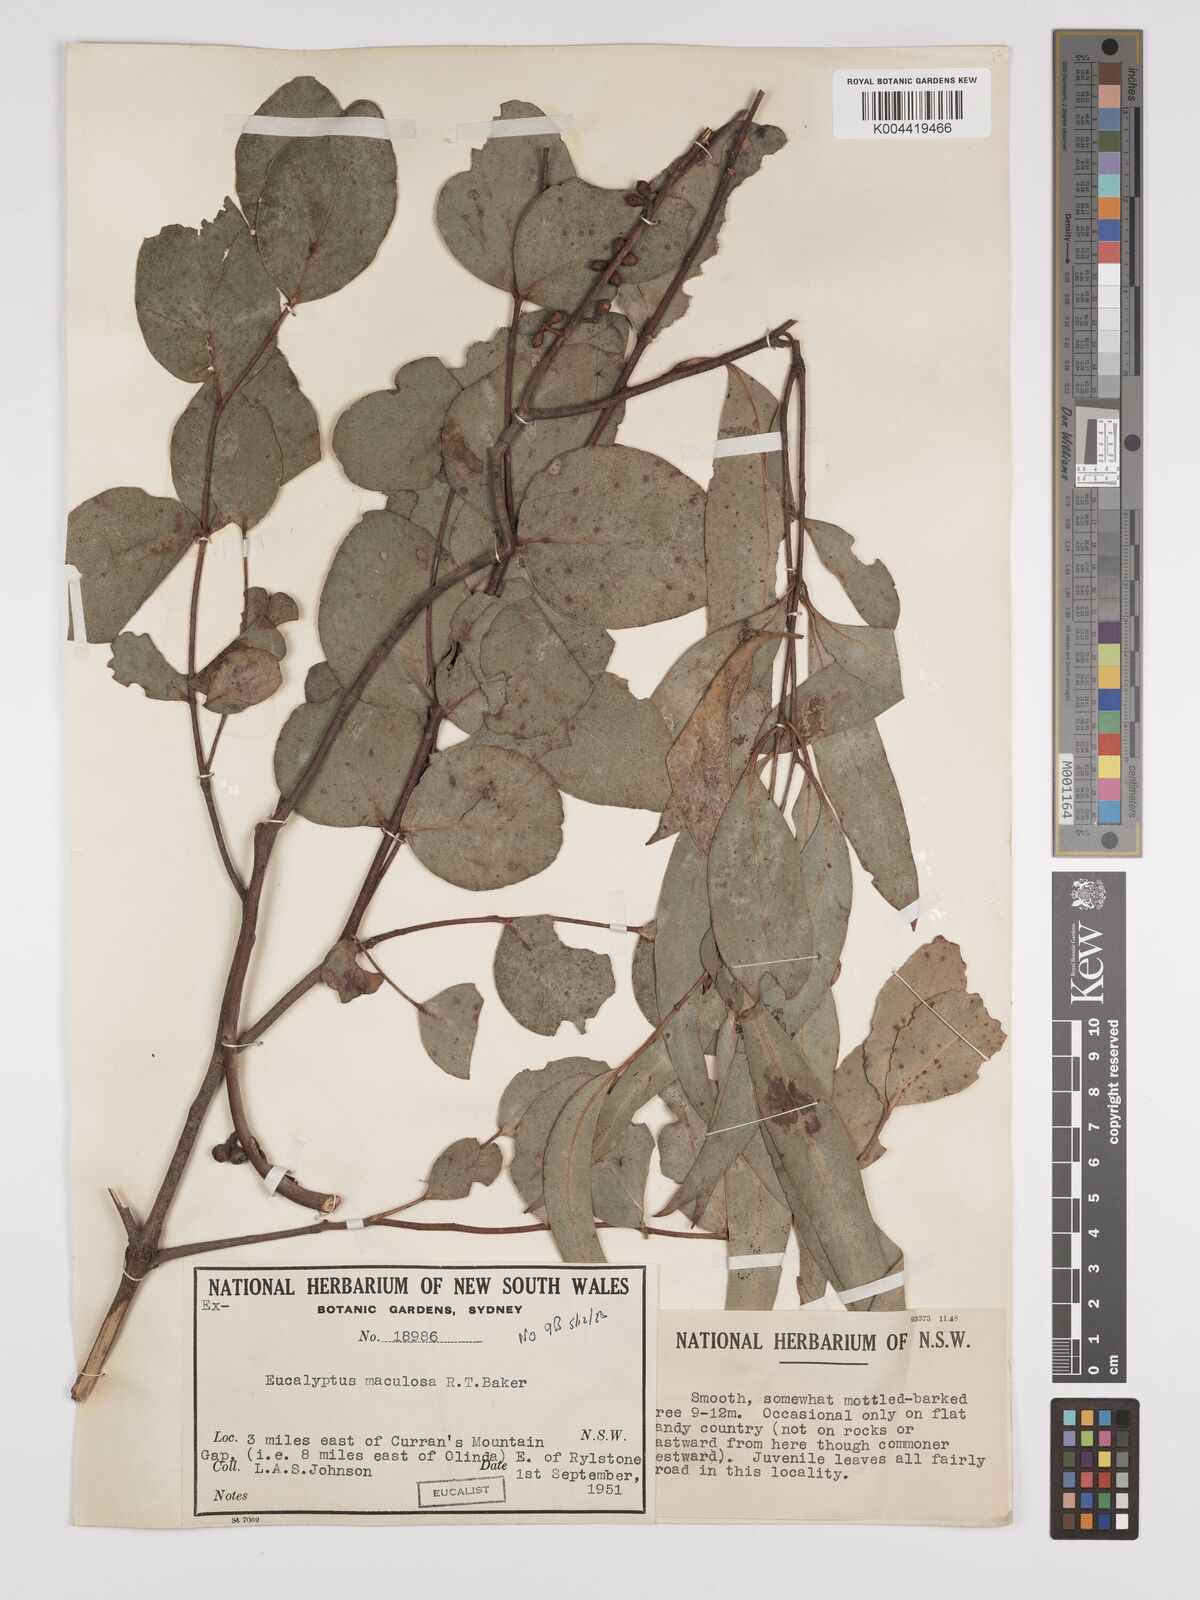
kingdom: Plantae
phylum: Tracheophyta
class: Magnoliopsida
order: Myrtales
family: Myrtaceae
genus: Eucalyptus
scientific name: Eucalyptus mannifera
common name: Manna gum
